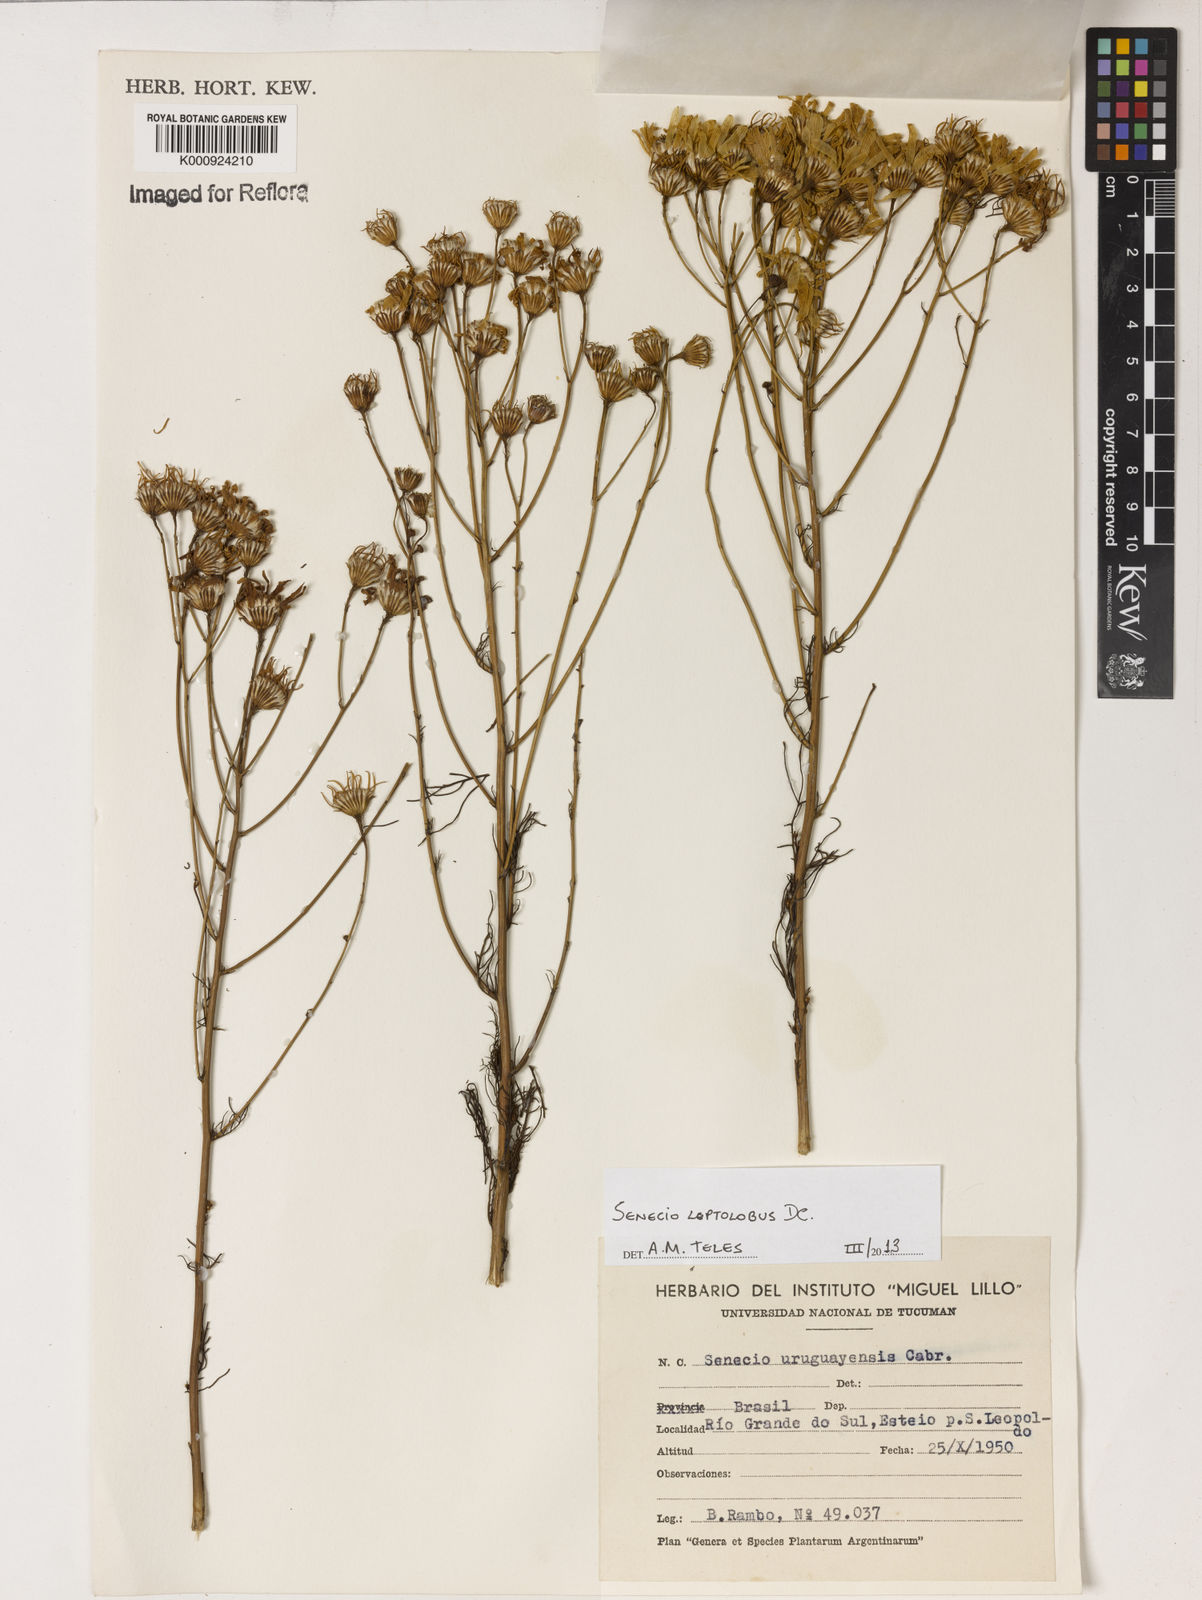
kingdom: Plantae
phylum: Tracheophyta
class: Magnoliopsida
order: Asterales
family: Asteraceae
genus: Senecio
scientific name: Senecio leptolobus
